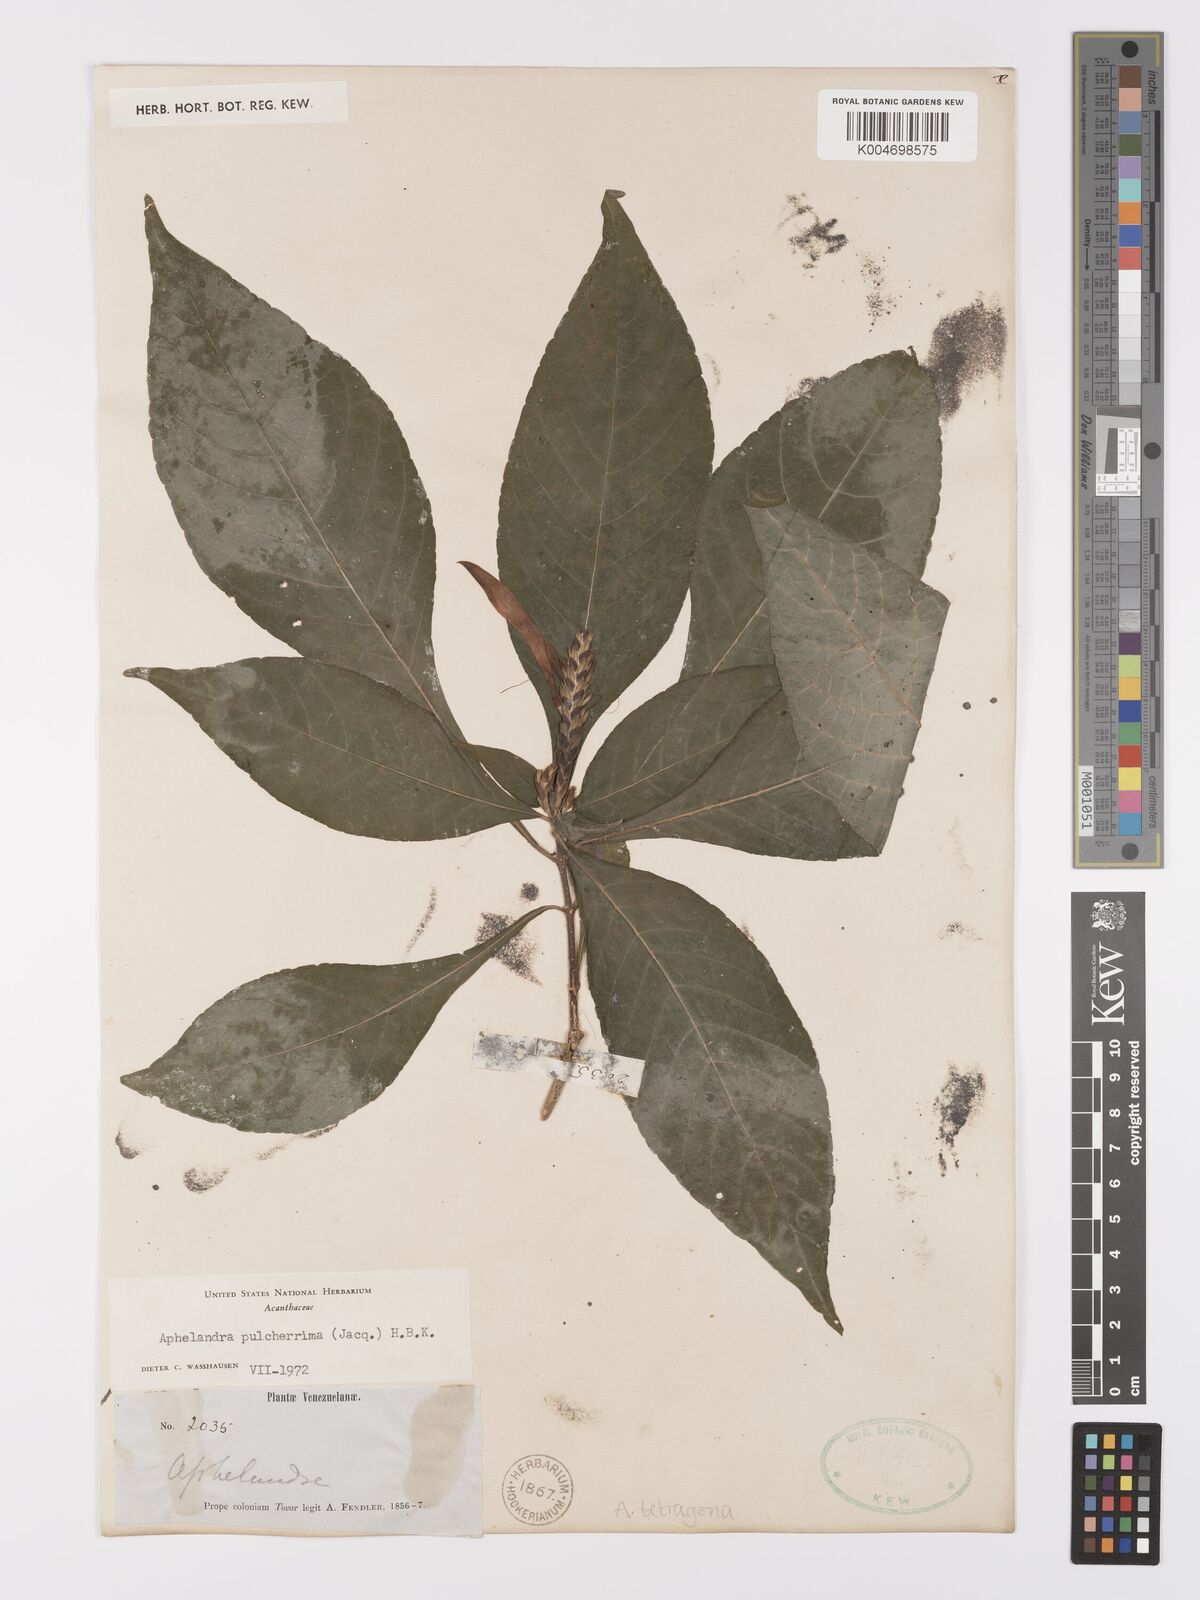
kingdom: Plantae
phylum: Tracheophyta
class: Magnoliopsida
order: Lamiales
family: Acanthaceae
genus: Aphelandra
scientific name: Aphelandra glabrata
